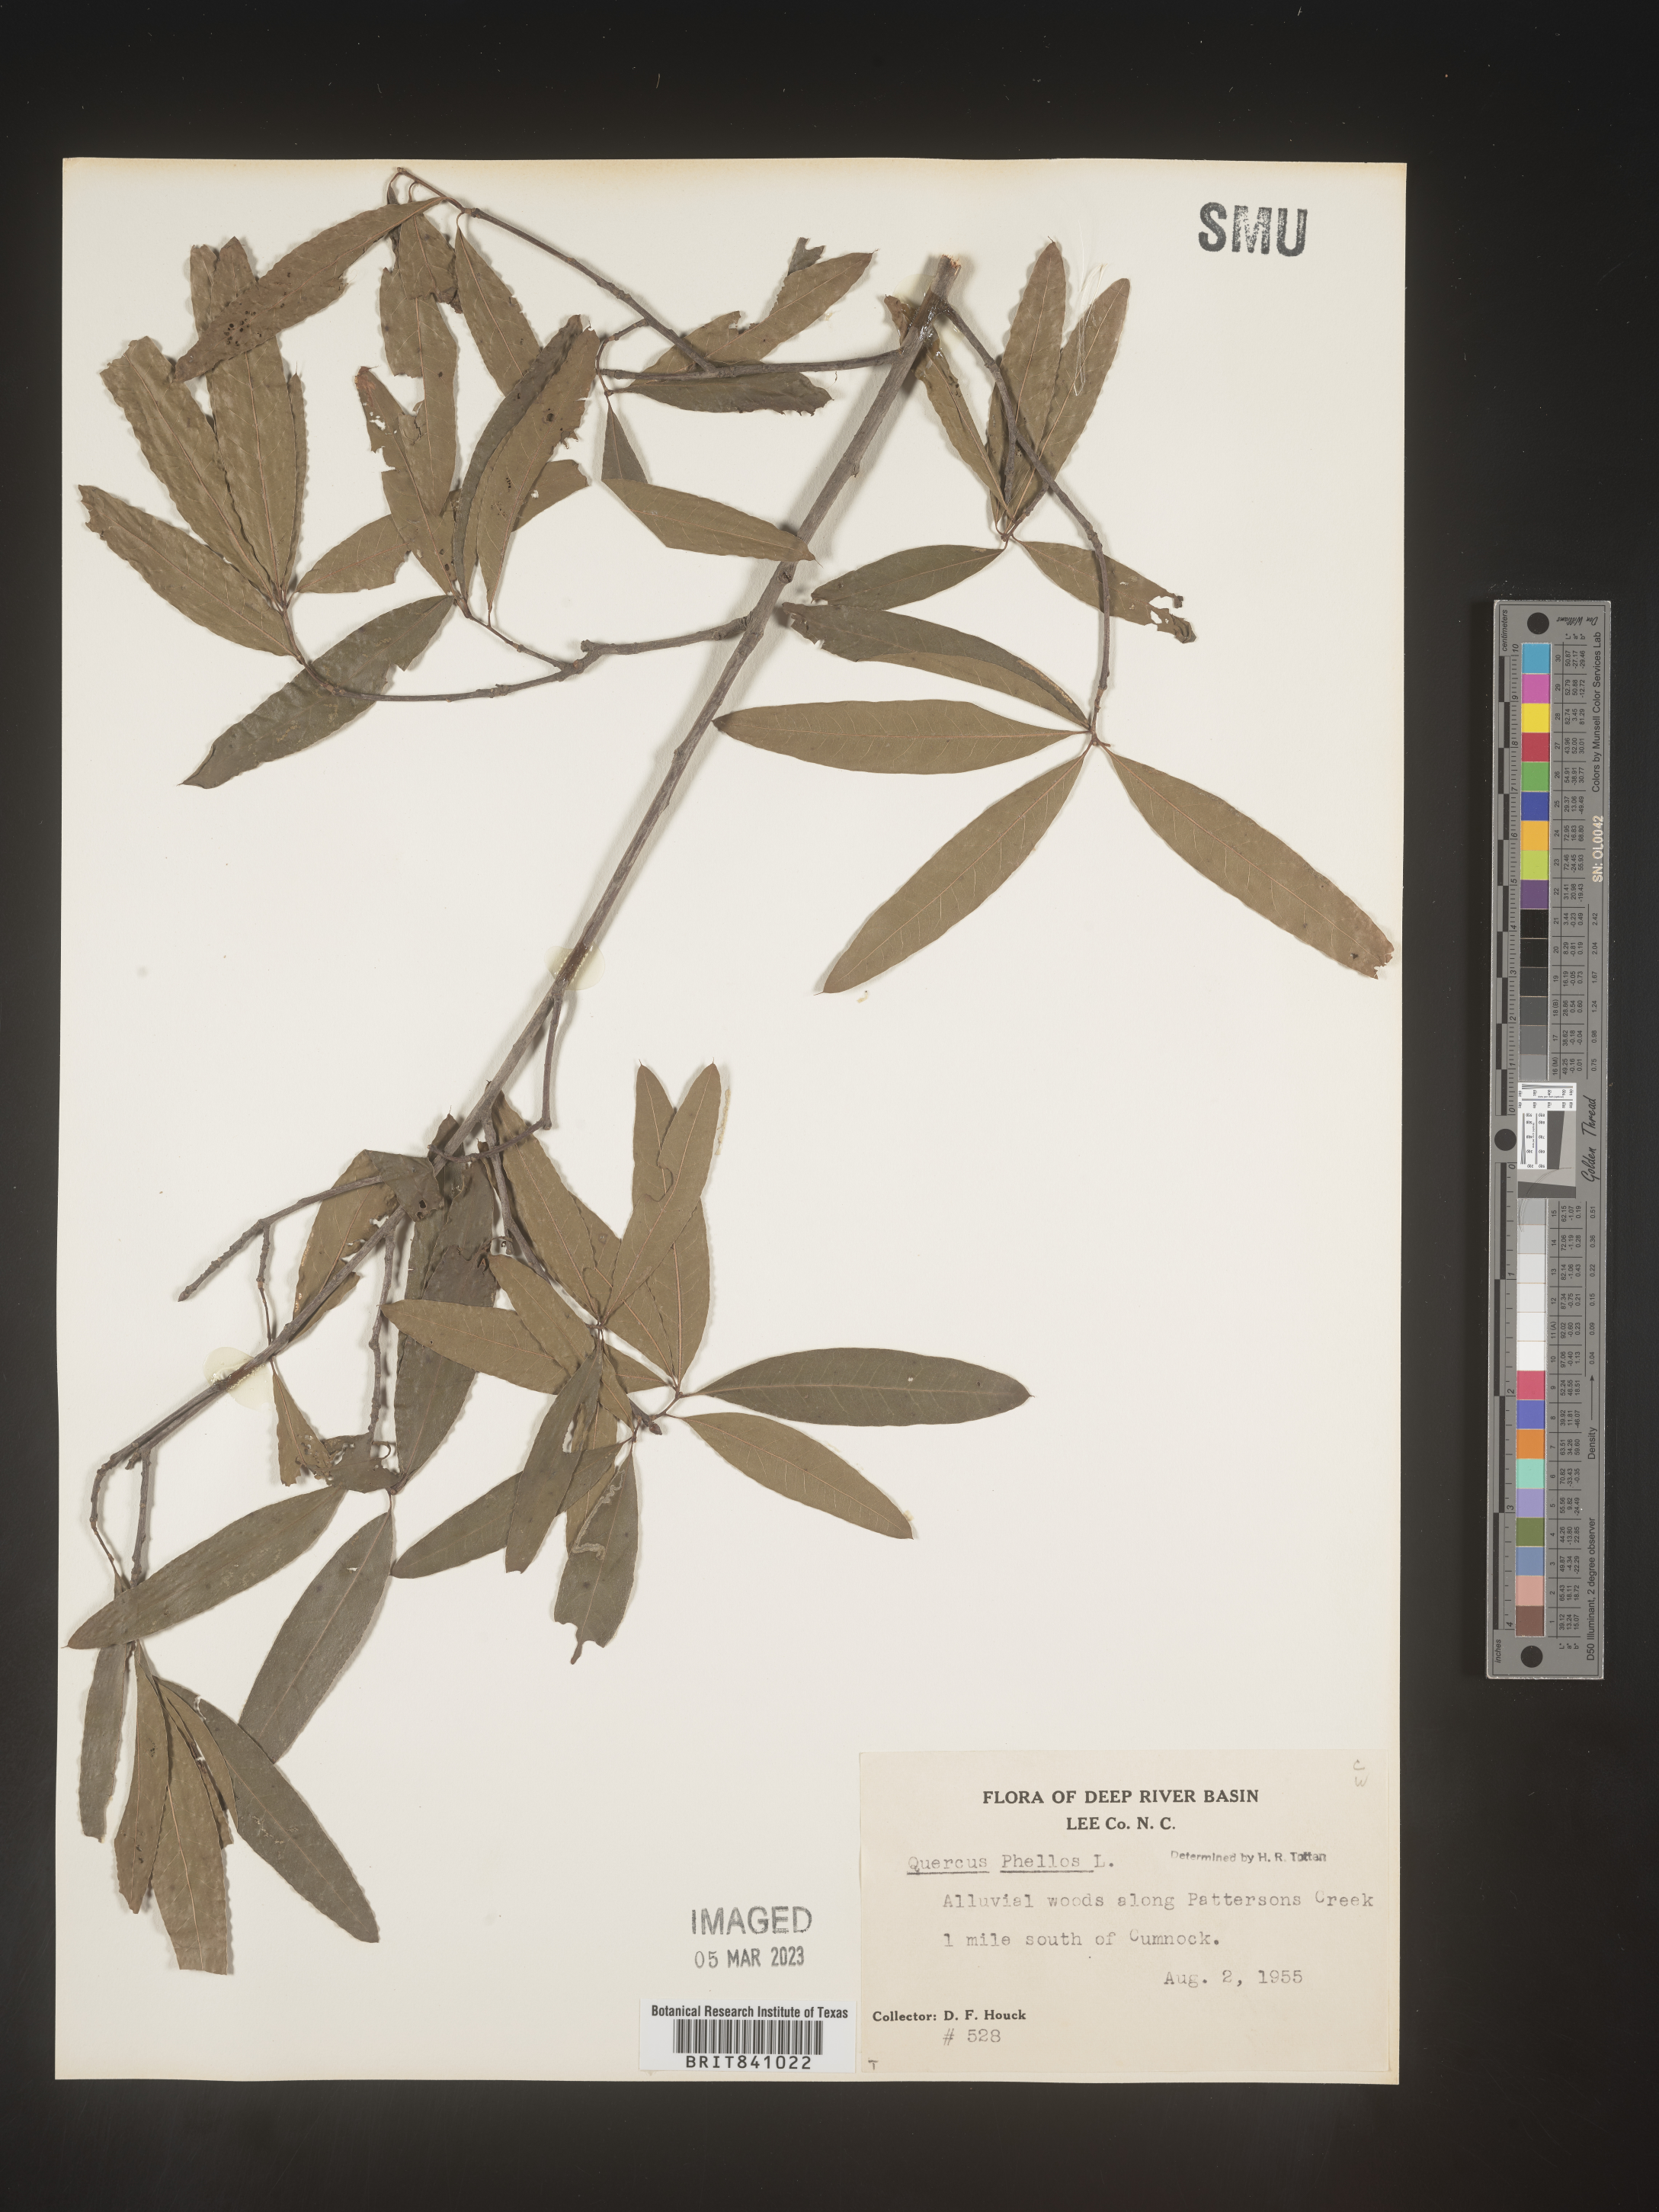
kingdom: Plantae
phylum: Tracheophyta
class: Magnoliopsida
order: Fagales
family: Fagaceae
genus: Quercus
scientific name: Quercus phellos
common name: Willow oak
